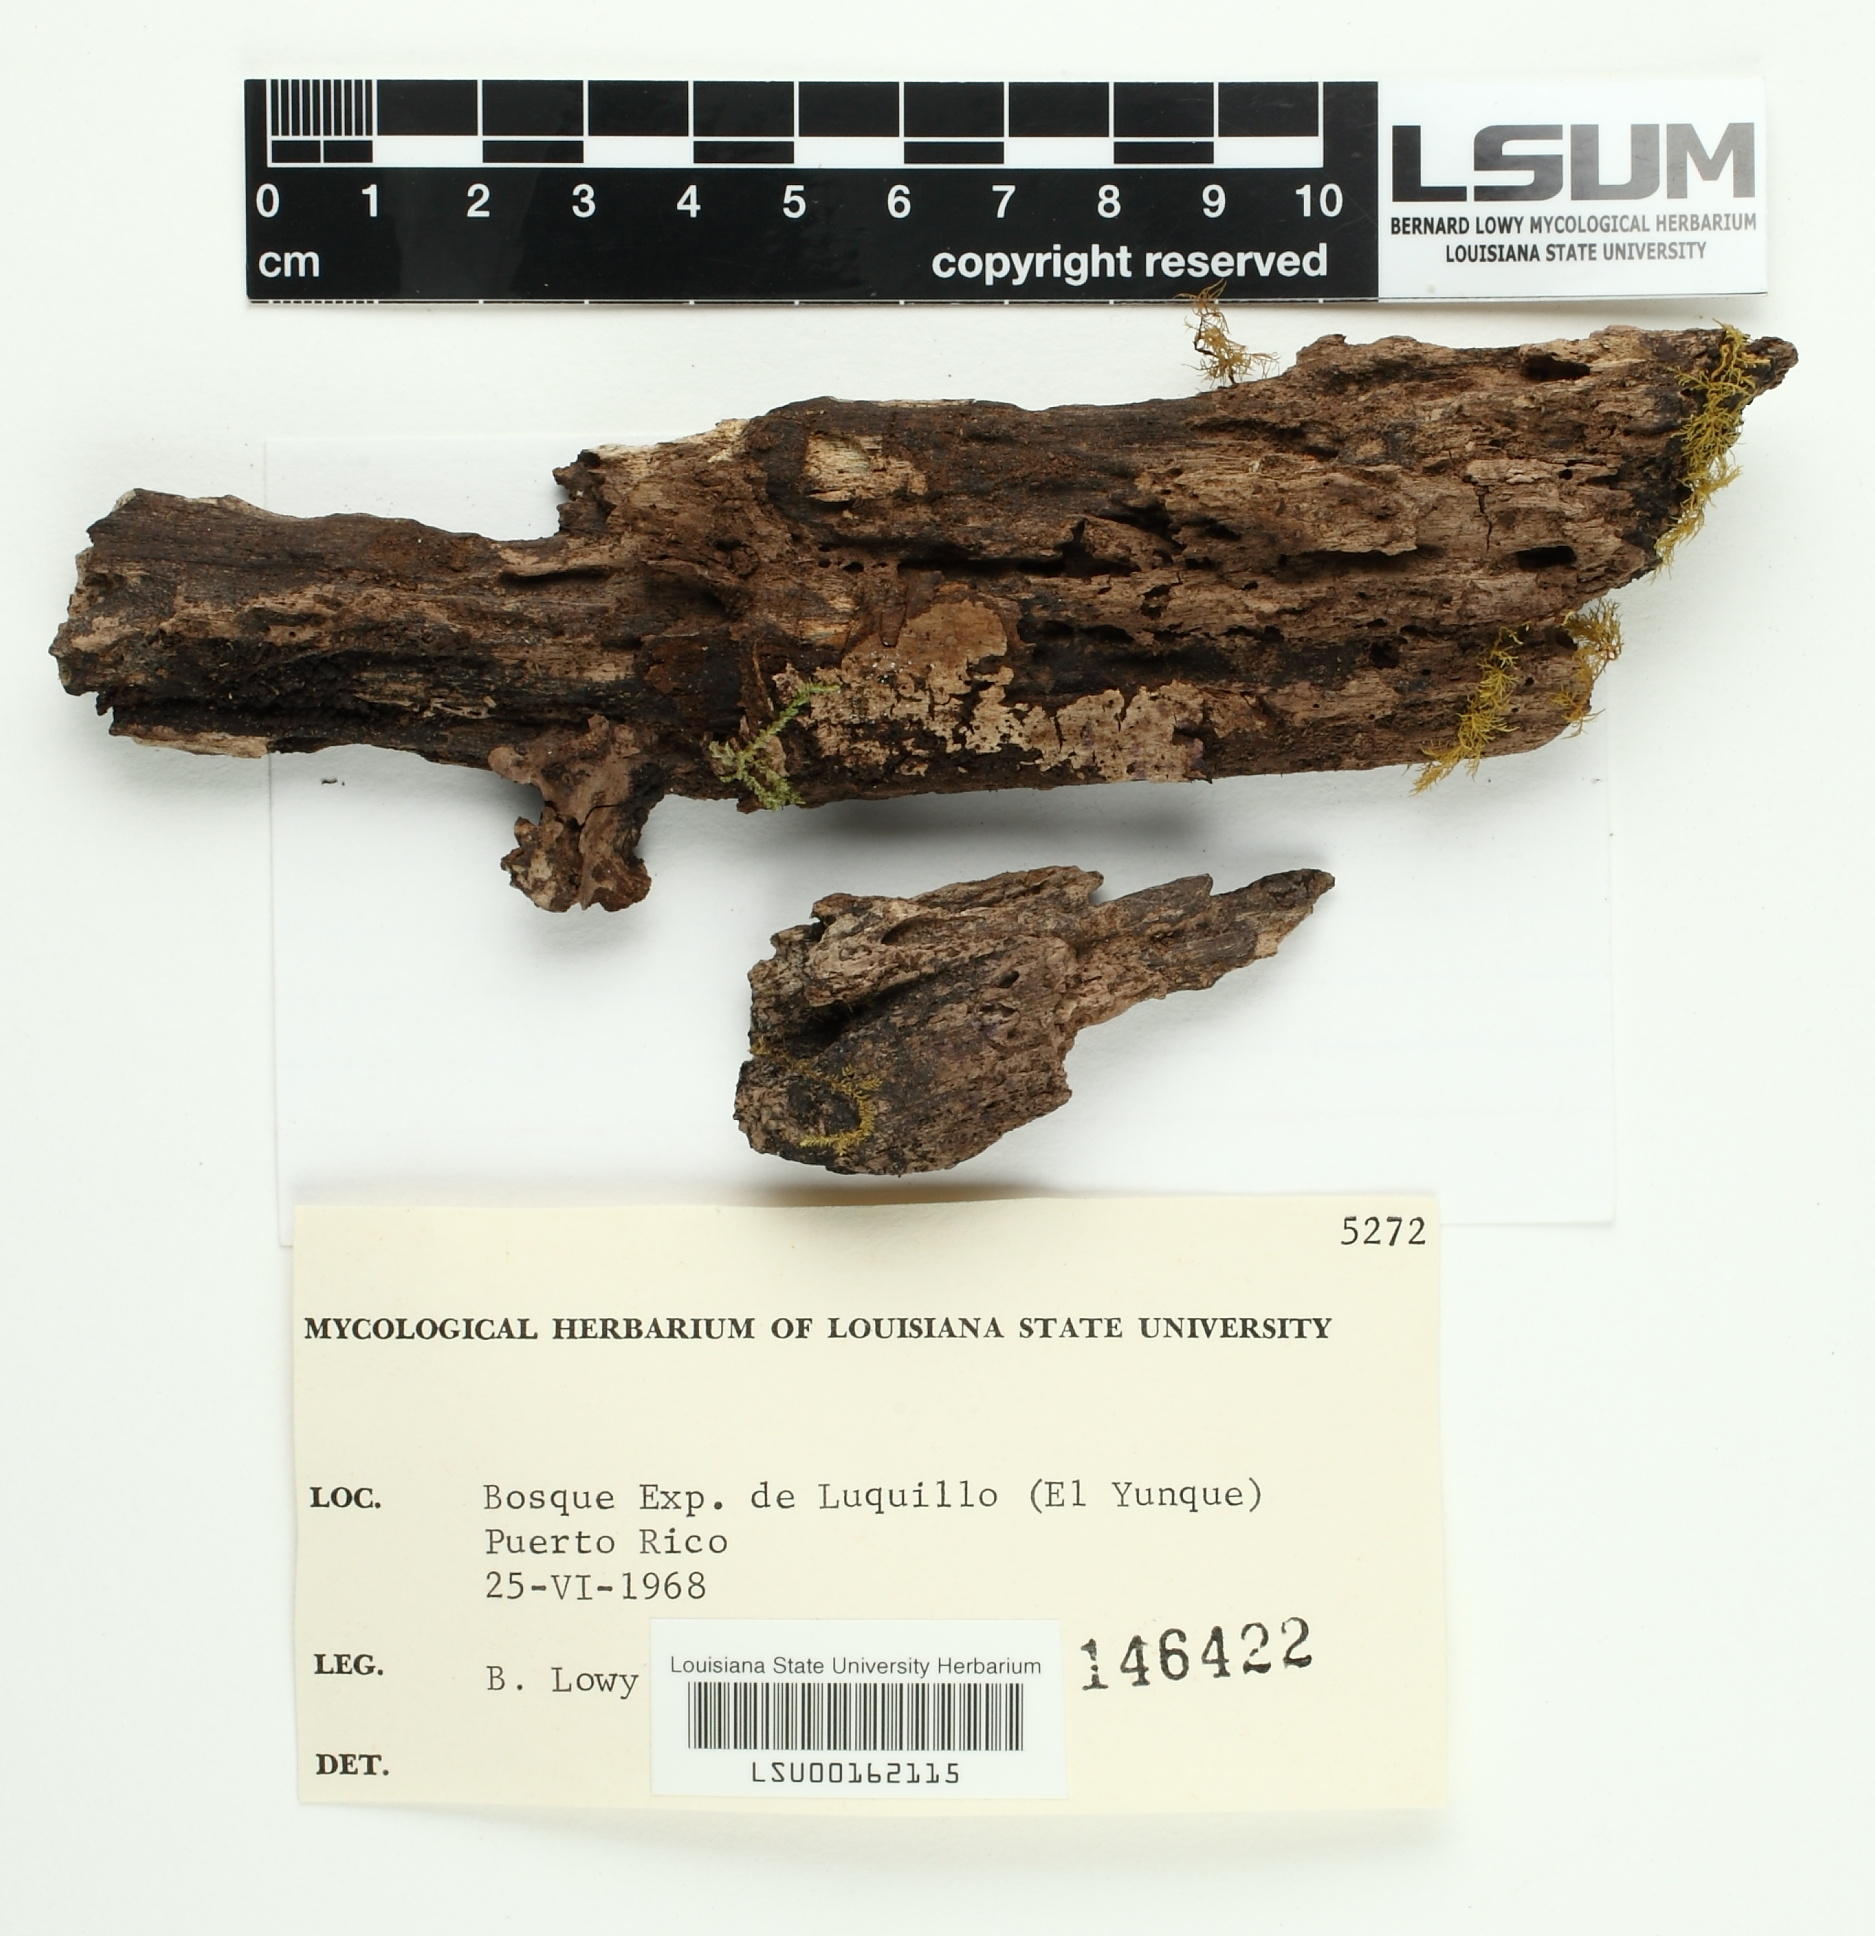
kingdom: Fungi
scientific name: Fungi
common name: Fungi
